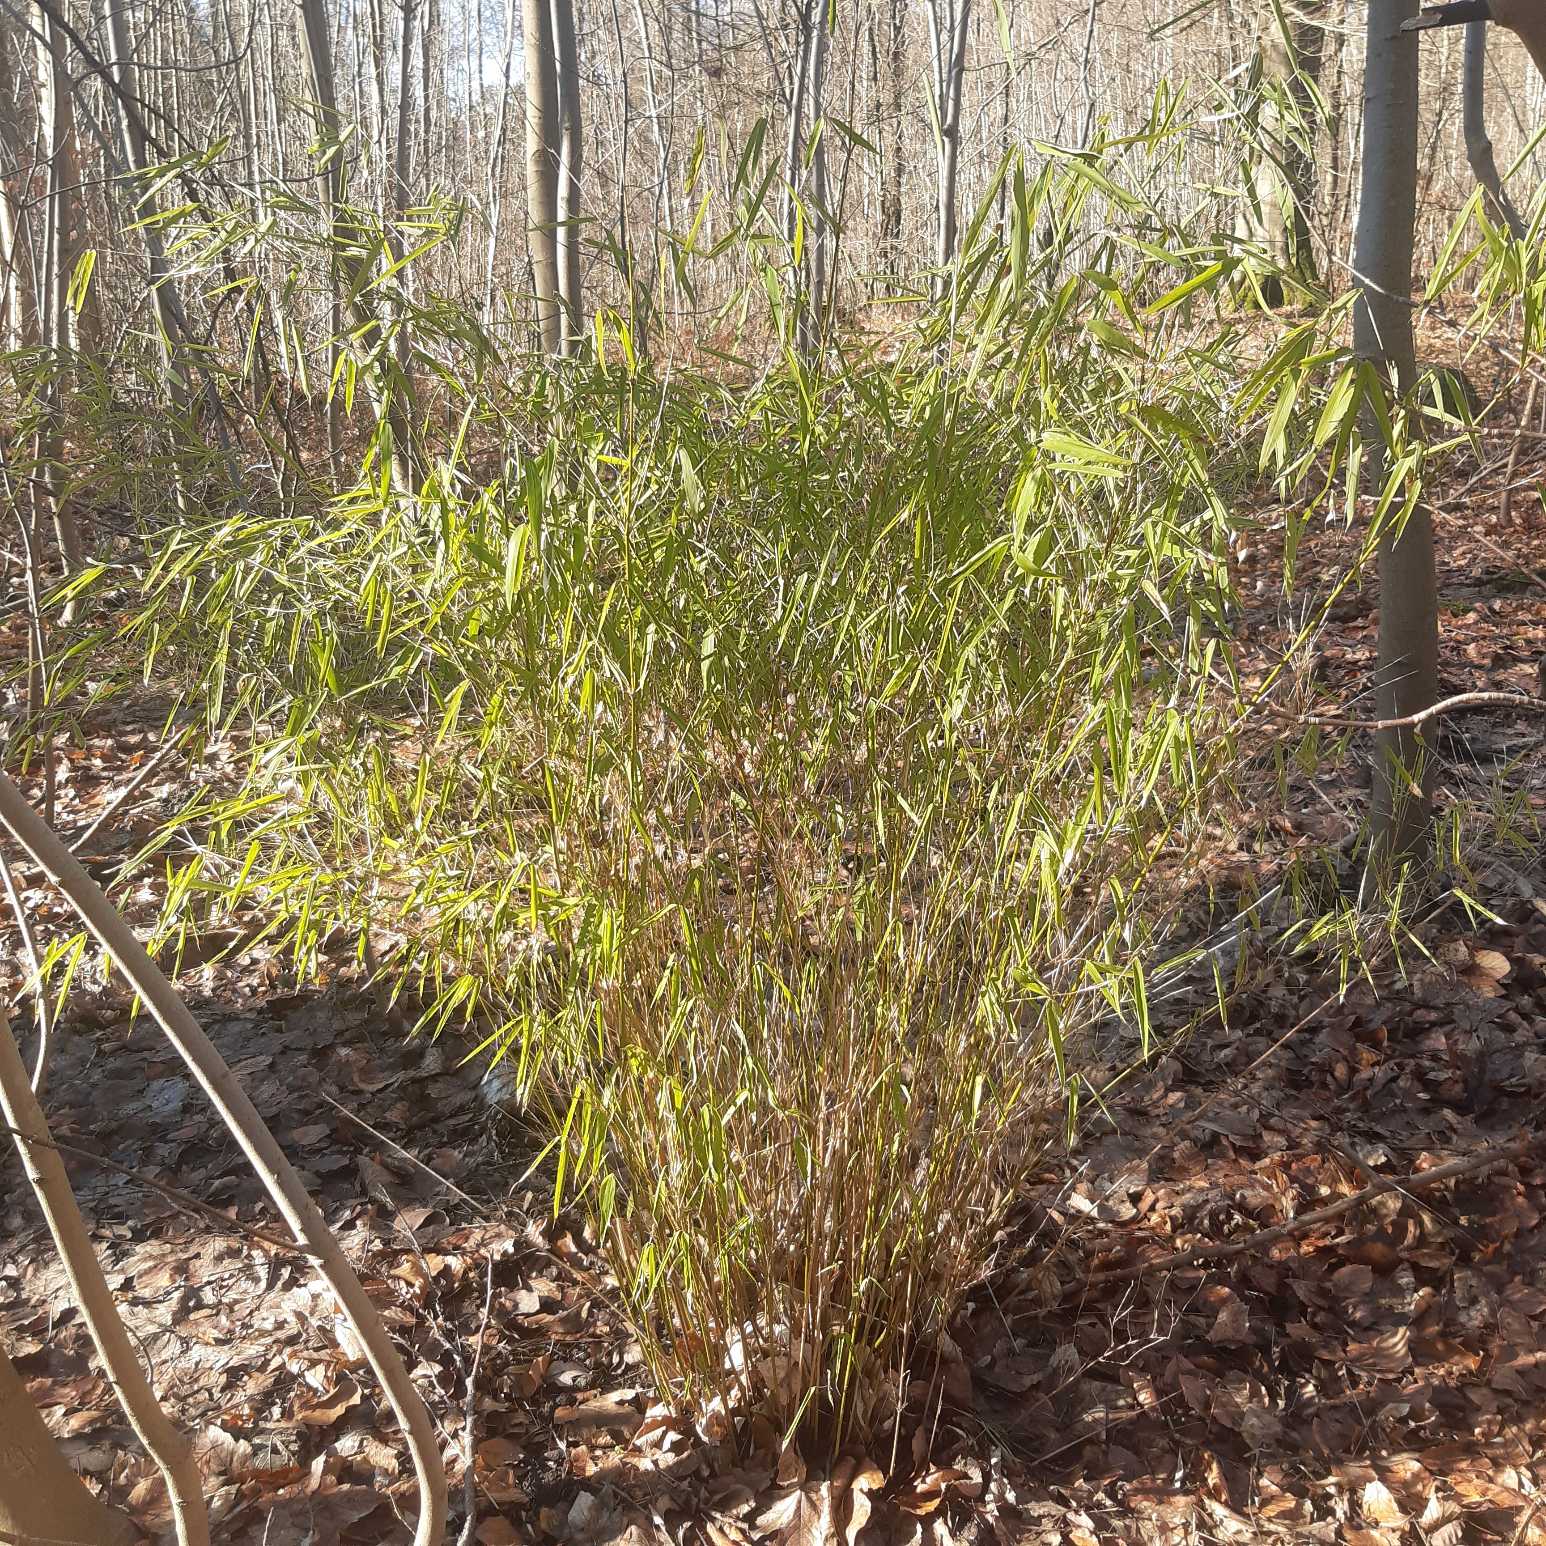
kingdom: Plantae
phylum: Tracheophyta
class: Liliopsida
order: Poales
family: Poaceae
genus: Fargesia
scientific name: Fargesia murielae
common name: Gul bambus
